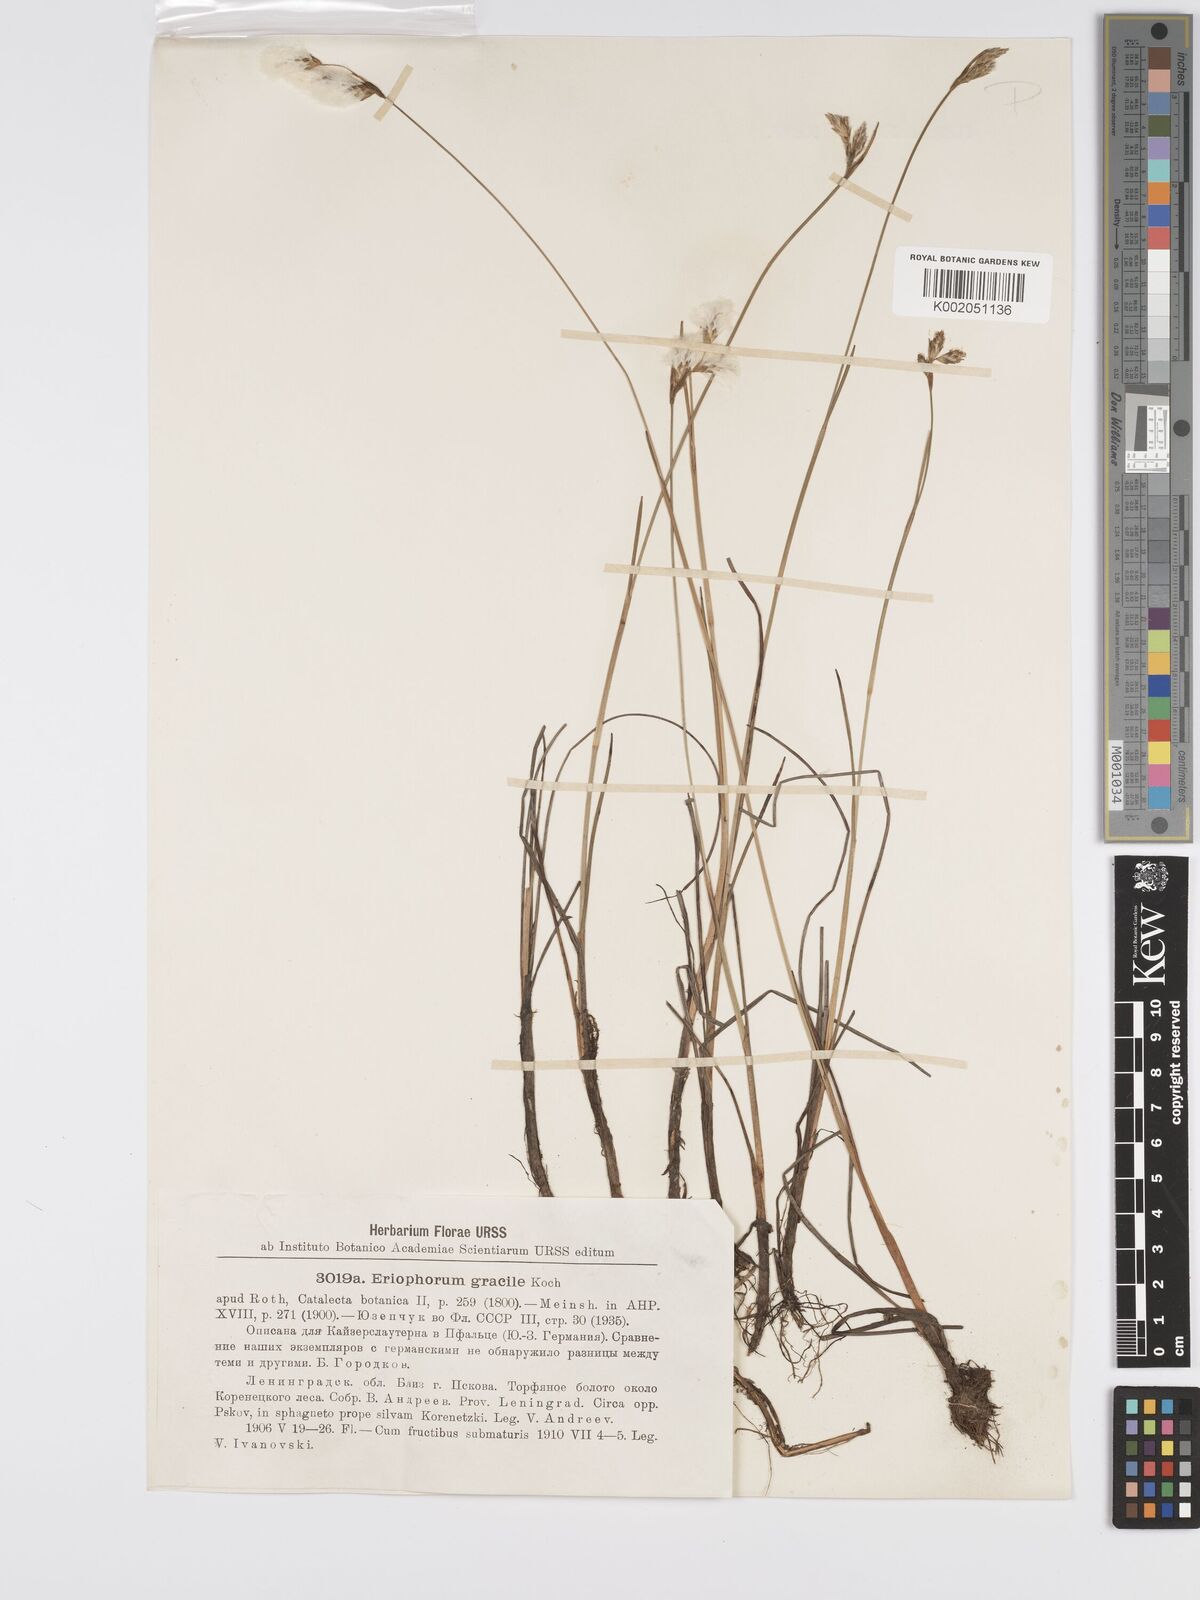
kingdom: Plantae
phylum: Tracheophyta
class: Liliopsida
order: Poales
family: Cyperaceae
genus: Eriophorum
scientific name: Eriophorum gracile
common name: Slender cottongrass
